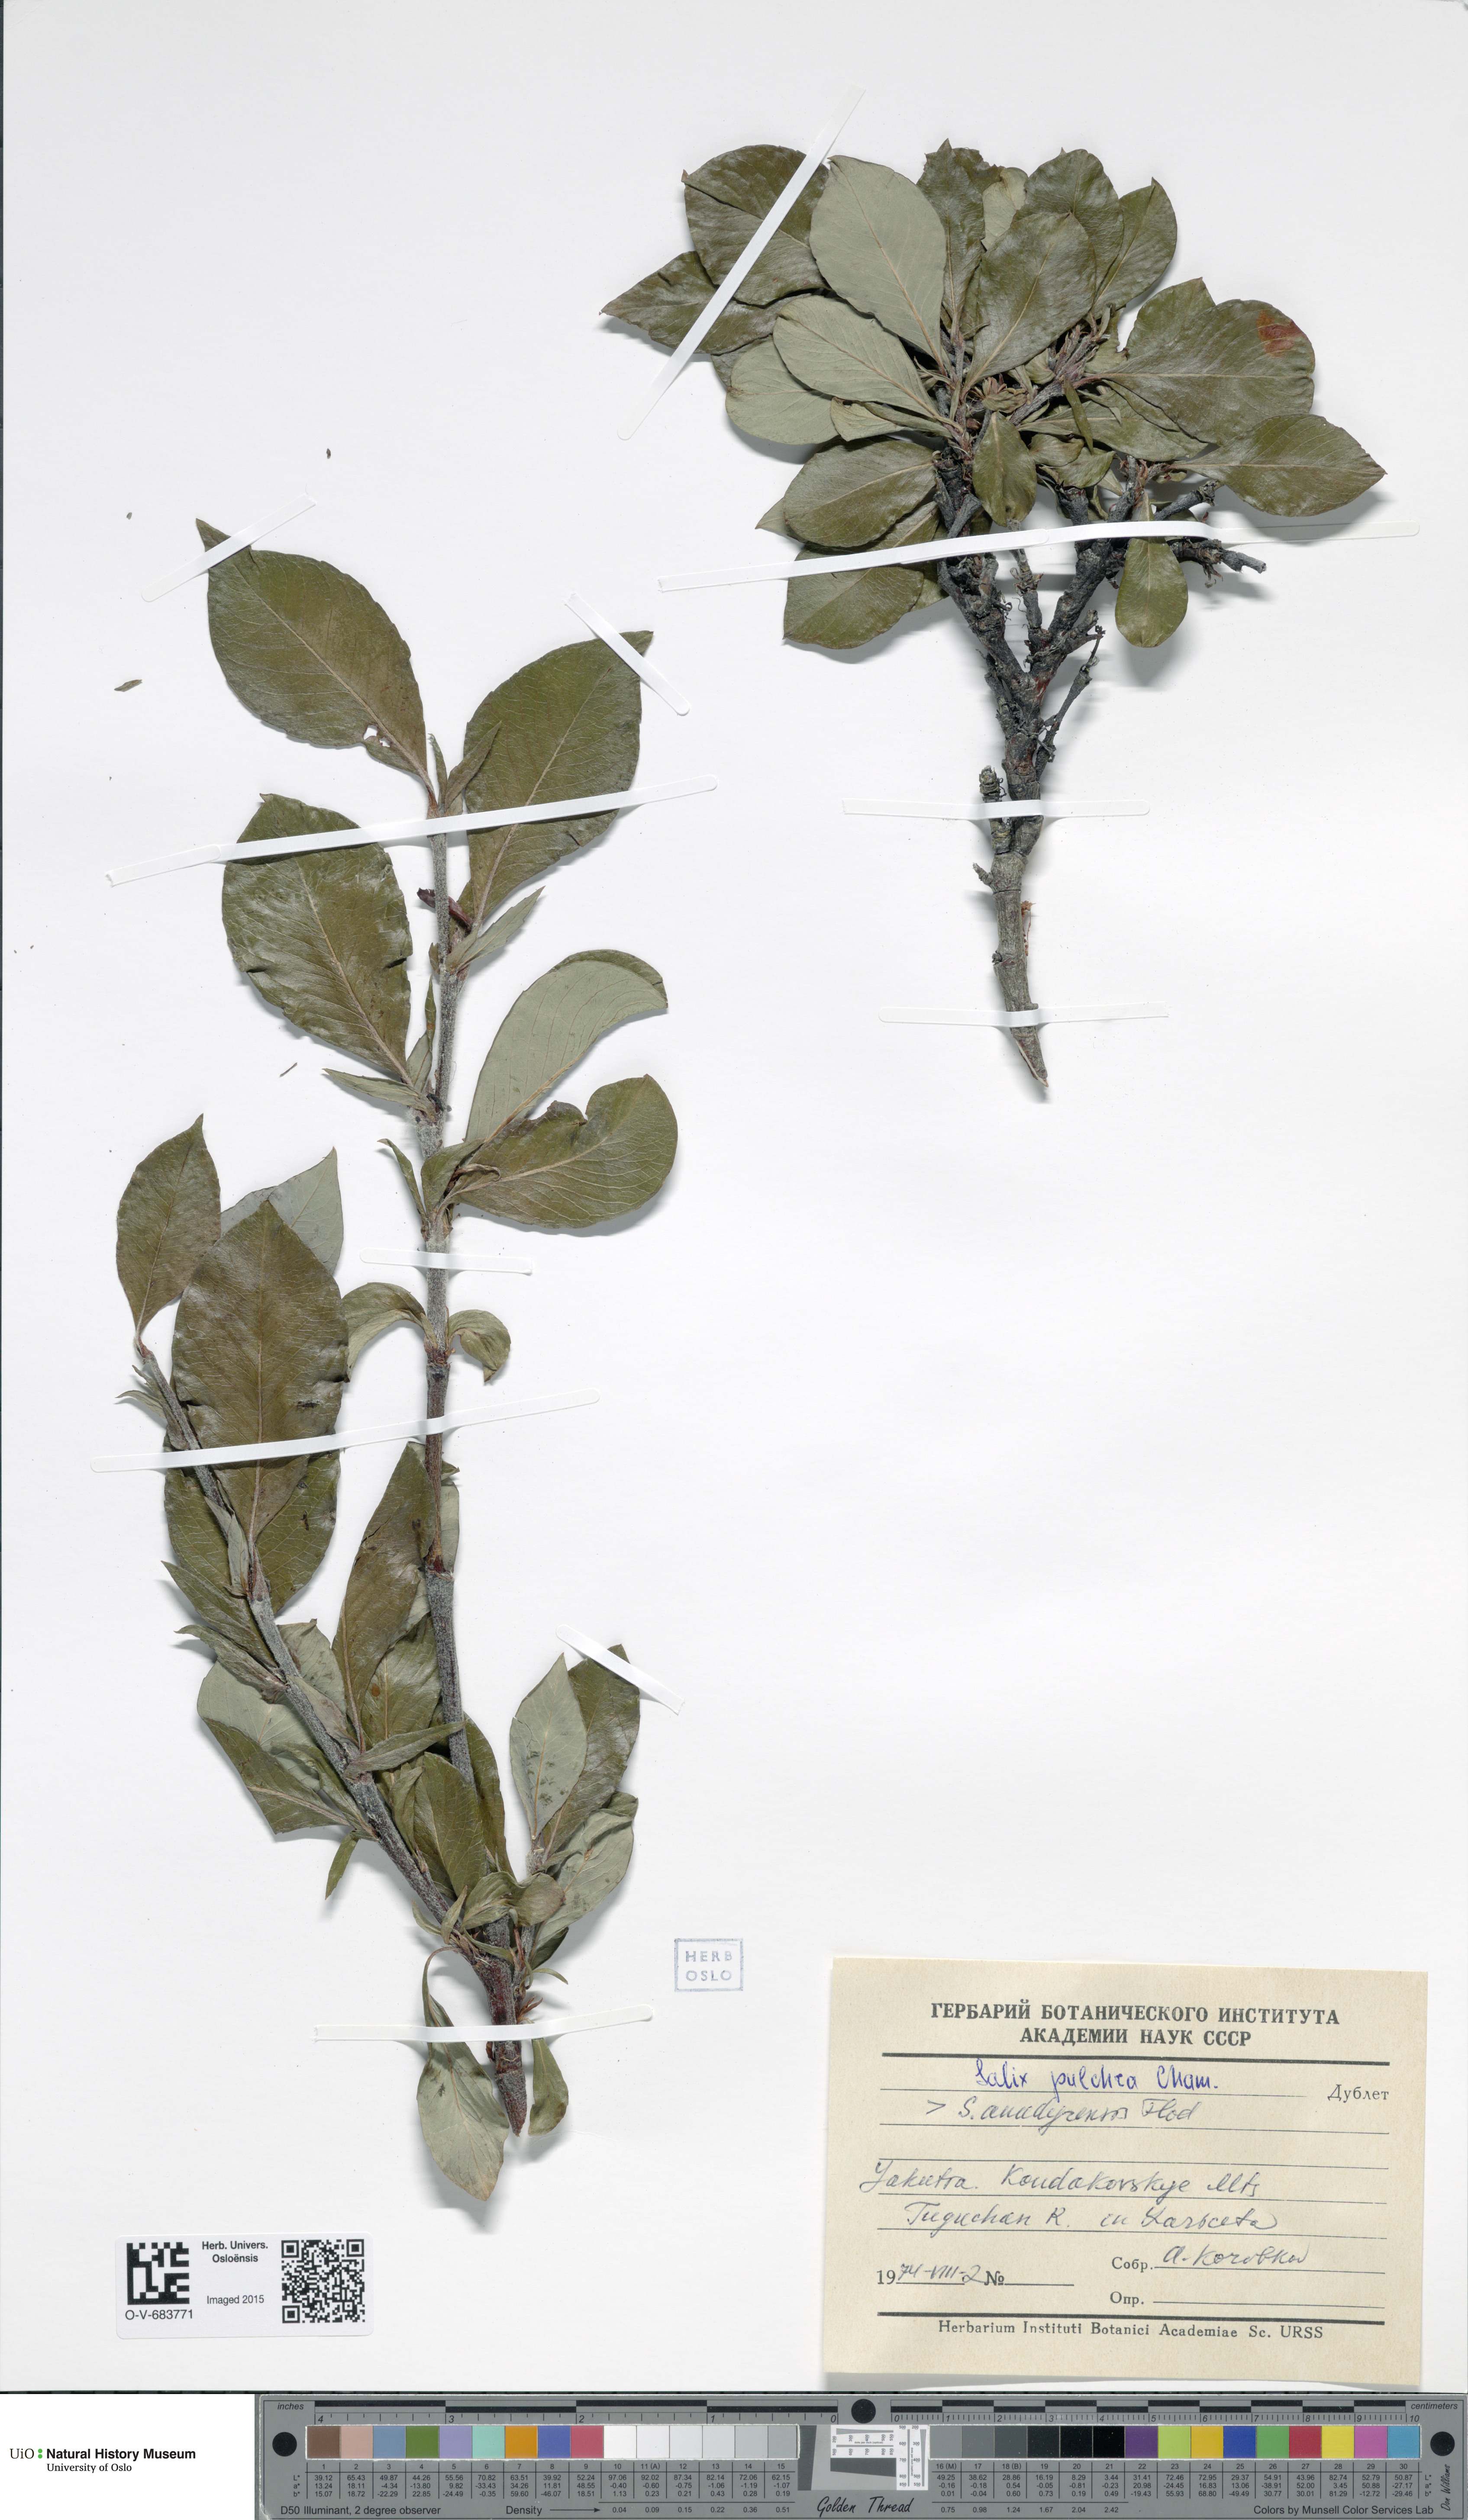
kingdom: Plantae
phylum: Tracheophyta
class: Magnoliopsida
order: Malpighiales
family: Salicaceae
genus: Salix
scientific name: Salix pulchra
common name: Diamond-leaved willow
